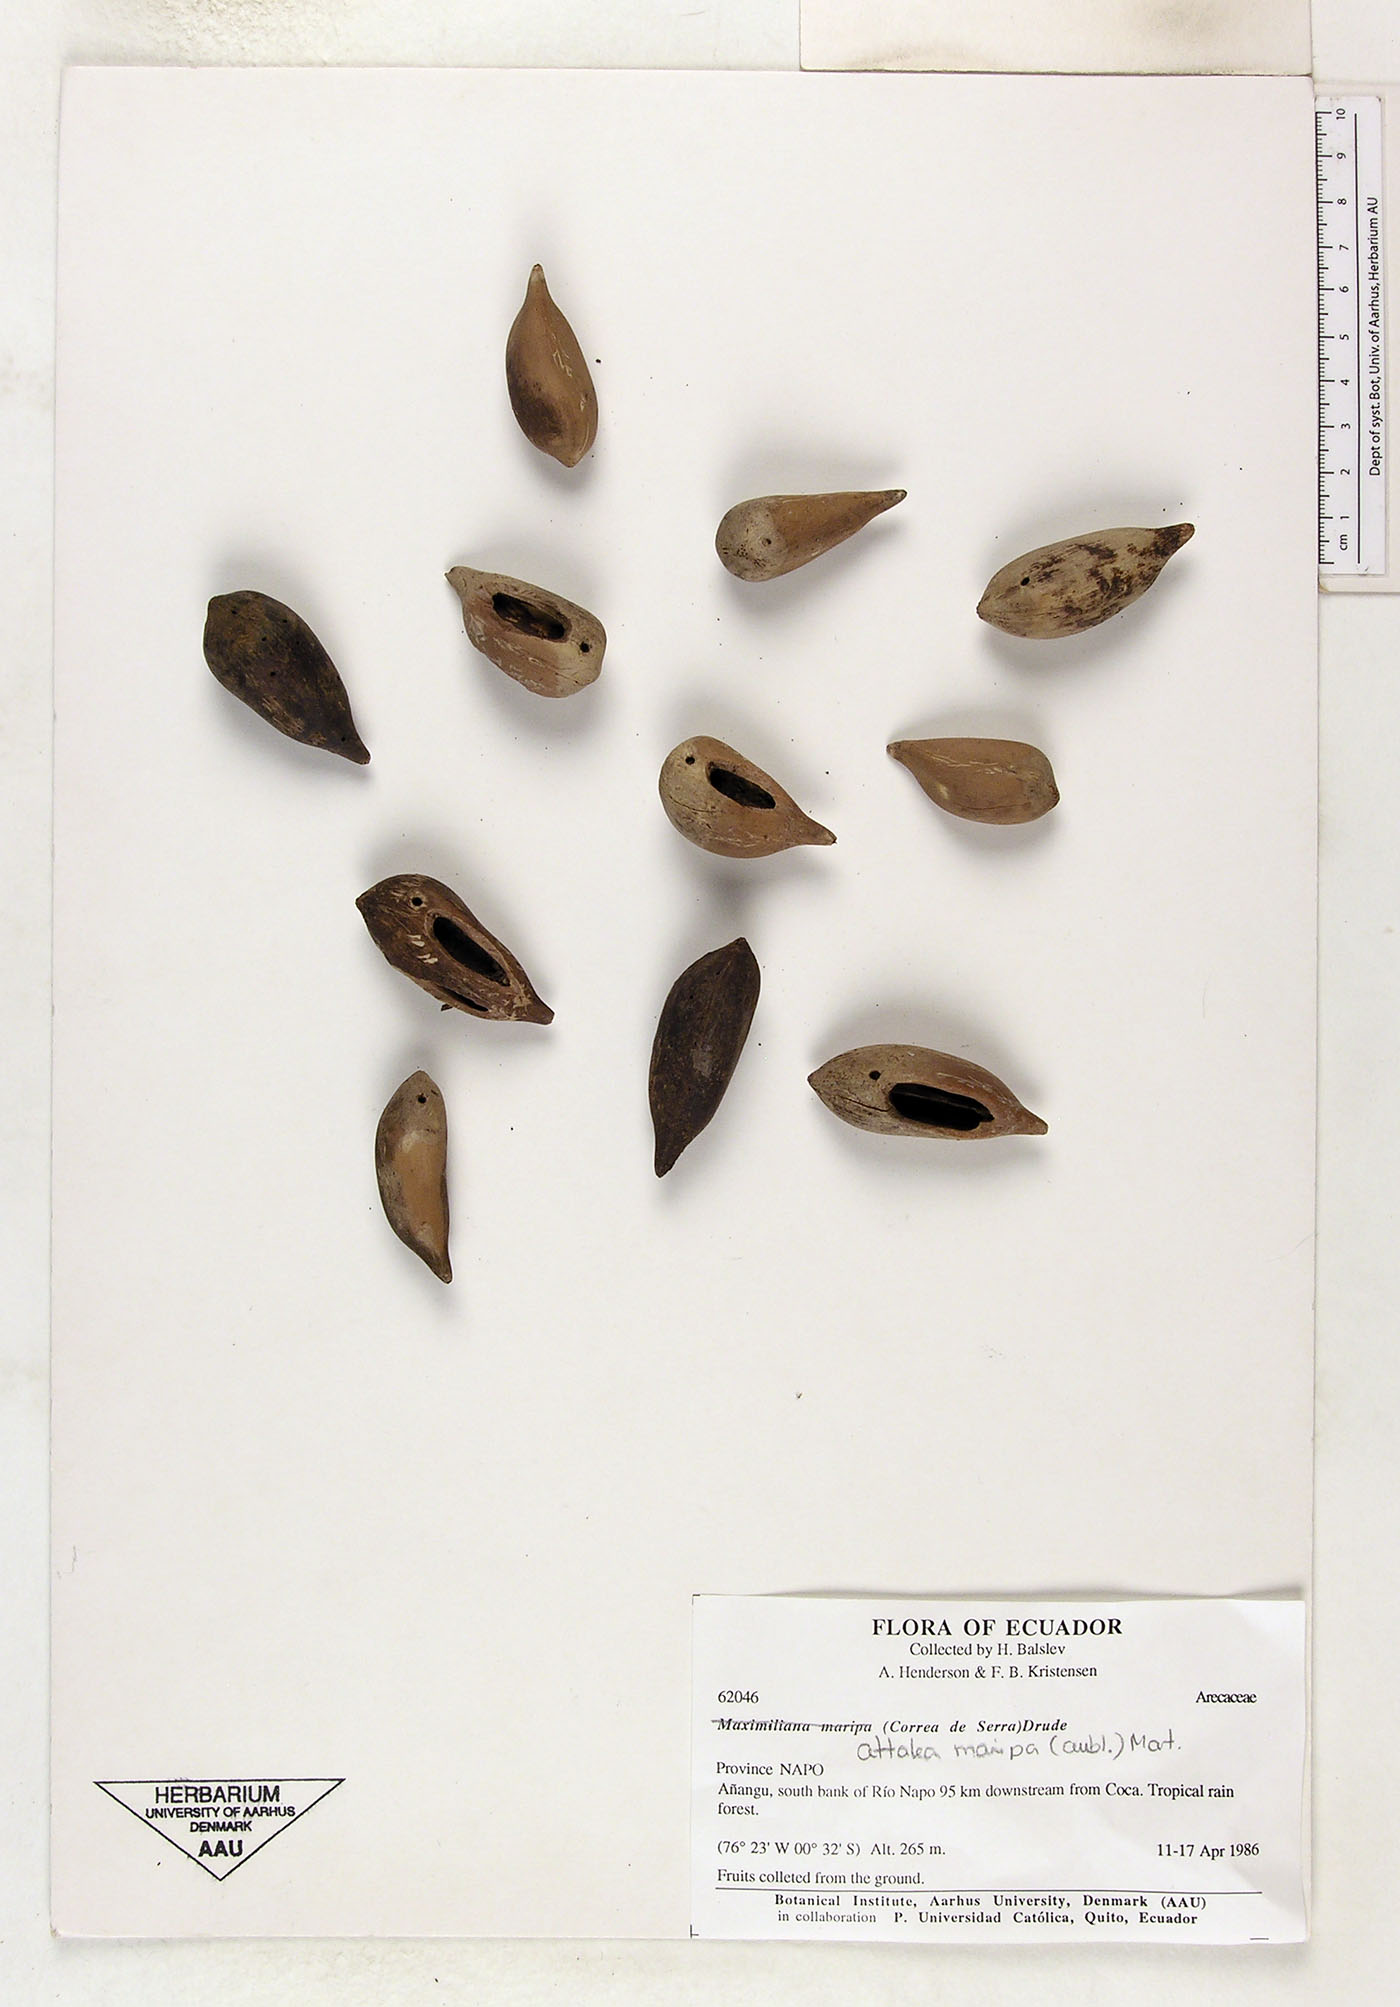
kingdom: Plantae
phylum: Tracheophyta
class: Liliopsida
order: Arecales
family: Arecaceae
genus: Attalea
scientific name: Attalea maripa
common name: Maripa palm
